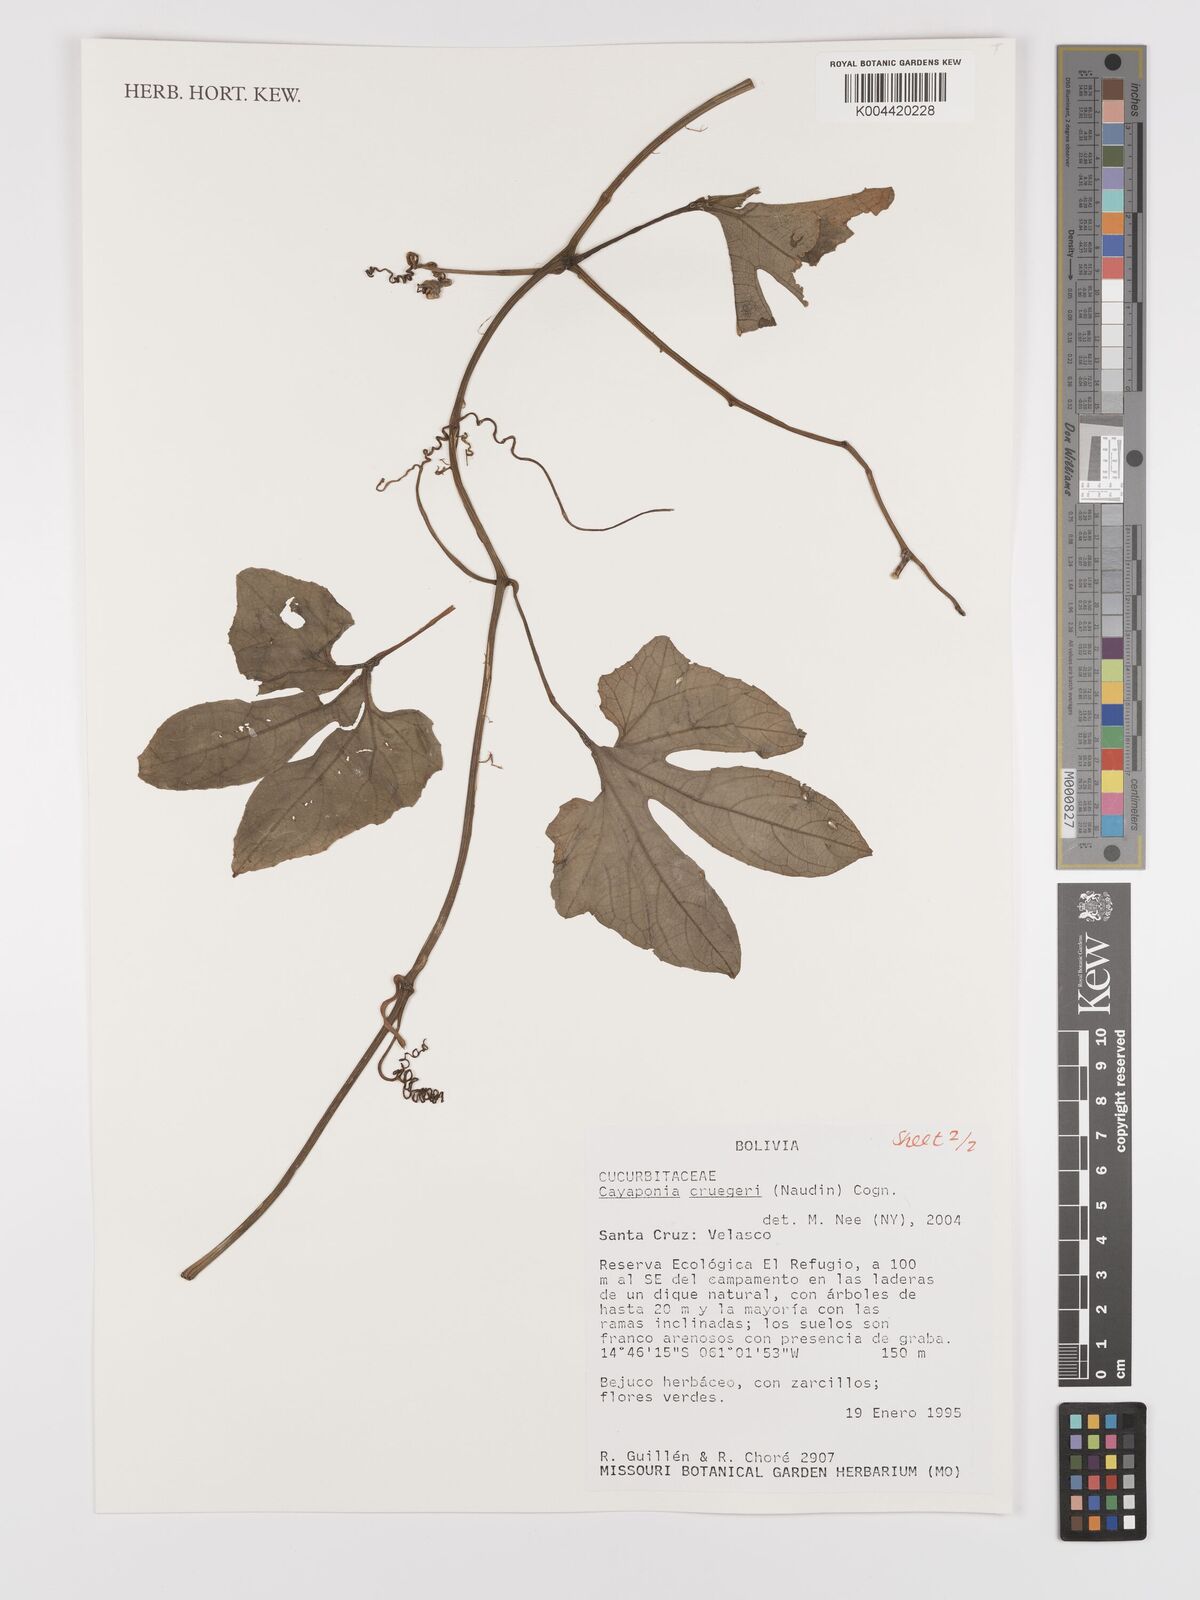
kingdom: Plantae
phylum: Tracheophyta
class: Magnoliopsida
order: Cucurbitales
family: Cucurbitaceae
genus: Cayaponia
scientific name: Cayaponia cruegeri
